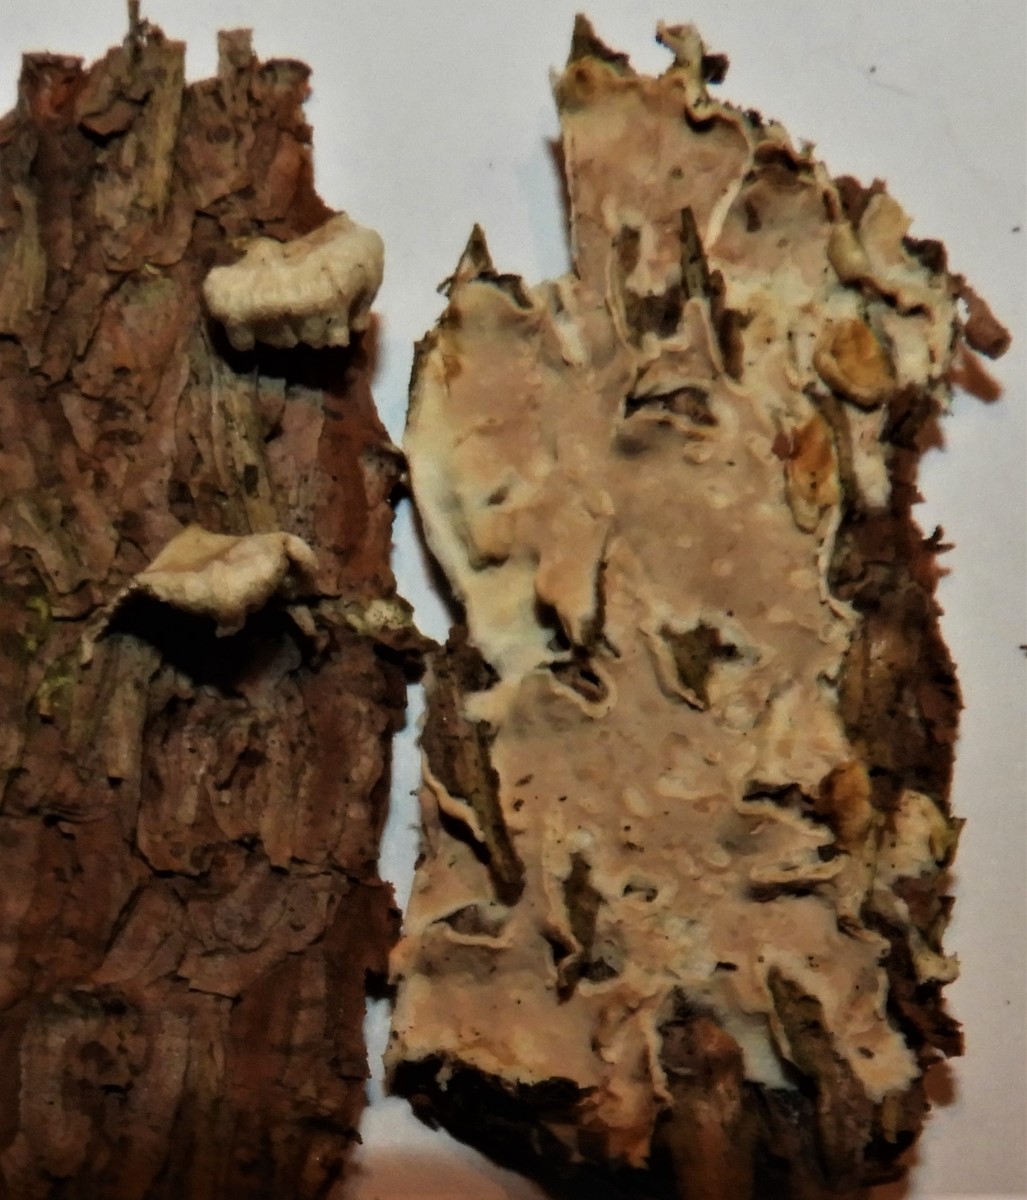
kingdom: Fungi
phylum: Basidiomycota
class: Agaricomycetes
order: Agaricales
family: Physalacriaceae
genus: Cylindrobasidium
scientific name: Cylindrobasidium evolvens
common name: sprækkehinde
